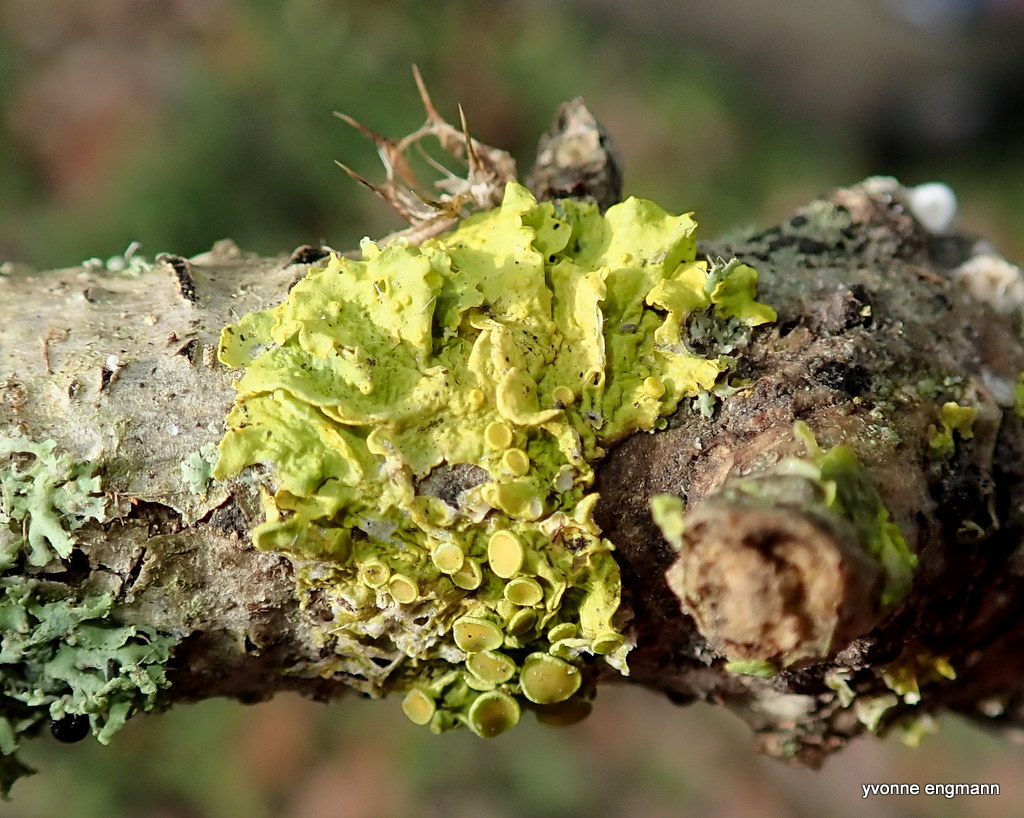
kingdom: Fungi
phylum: Ascomycota
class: Lecanoromycetes
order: Teloschistales
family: Teloschistaceae
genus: Xanthoria
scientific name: Xanthoria parietina
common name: almindelig væggelav
